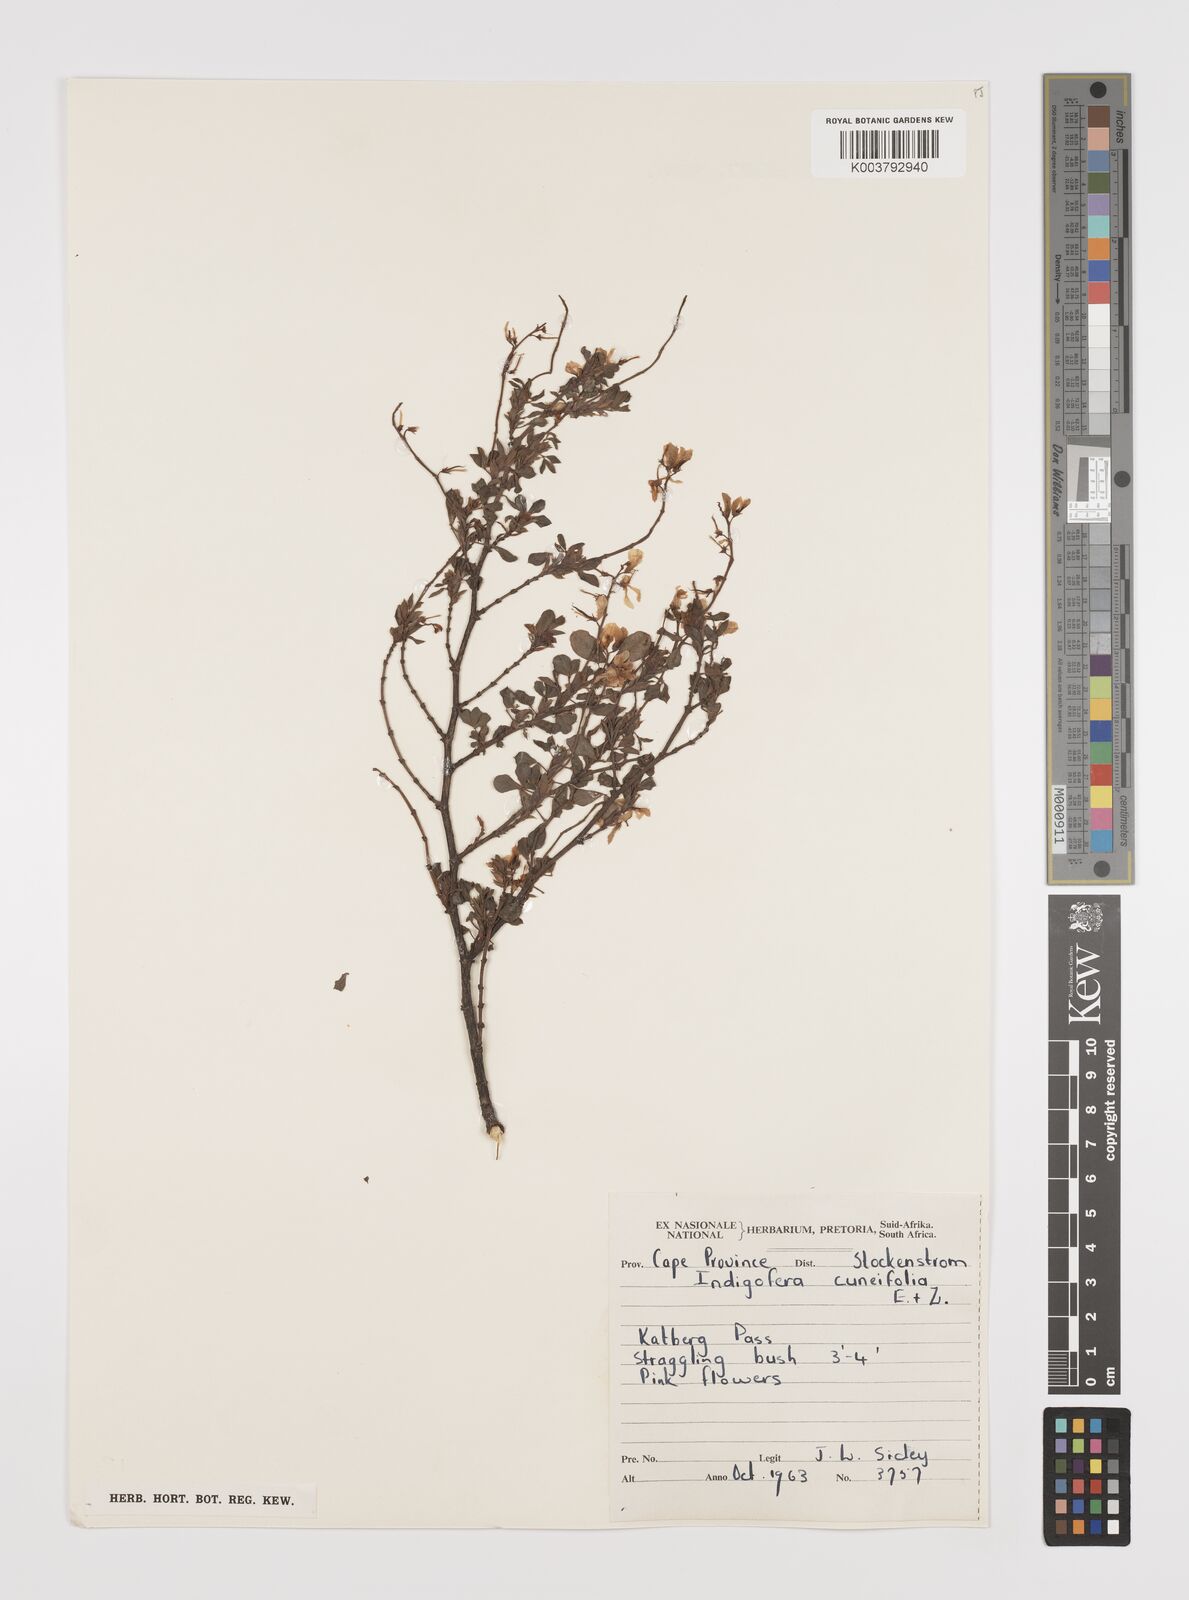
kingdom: Plantae
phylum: Tracheophyta
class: Magnoliopsida
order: Fabales
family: Fabaceae
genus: Indigofera
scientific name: Indigofera elandsbergensis
